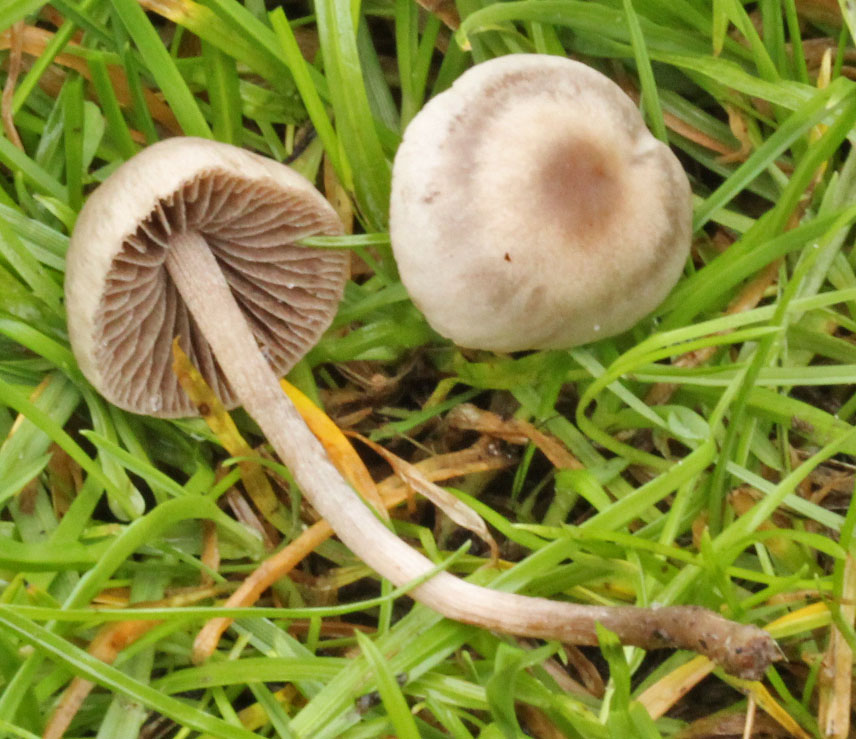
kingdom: Fungi
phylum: Basidiomycota
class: Agaricomycetes
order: Agaricales
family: Bolbitiaceae
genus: Panaeolina
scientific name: Panaeolina foenisecii
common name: høslætsvamp
